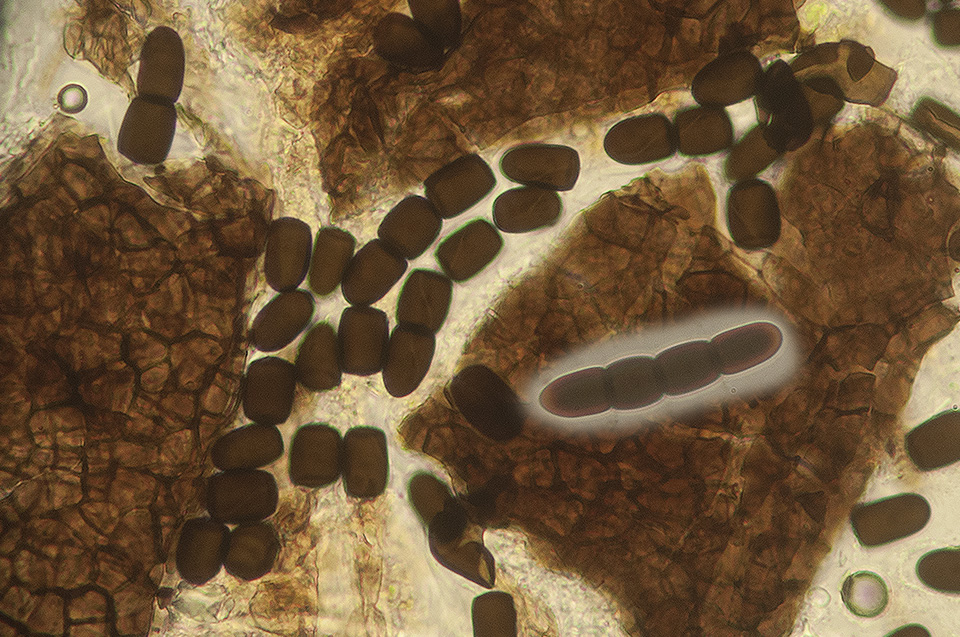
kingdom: Fungi
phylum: Ascomycota
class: Dothideomycetes
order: Pleosporales
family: Sporormiaceae
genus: Sporormiella
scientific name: Sporormiella intermedia
